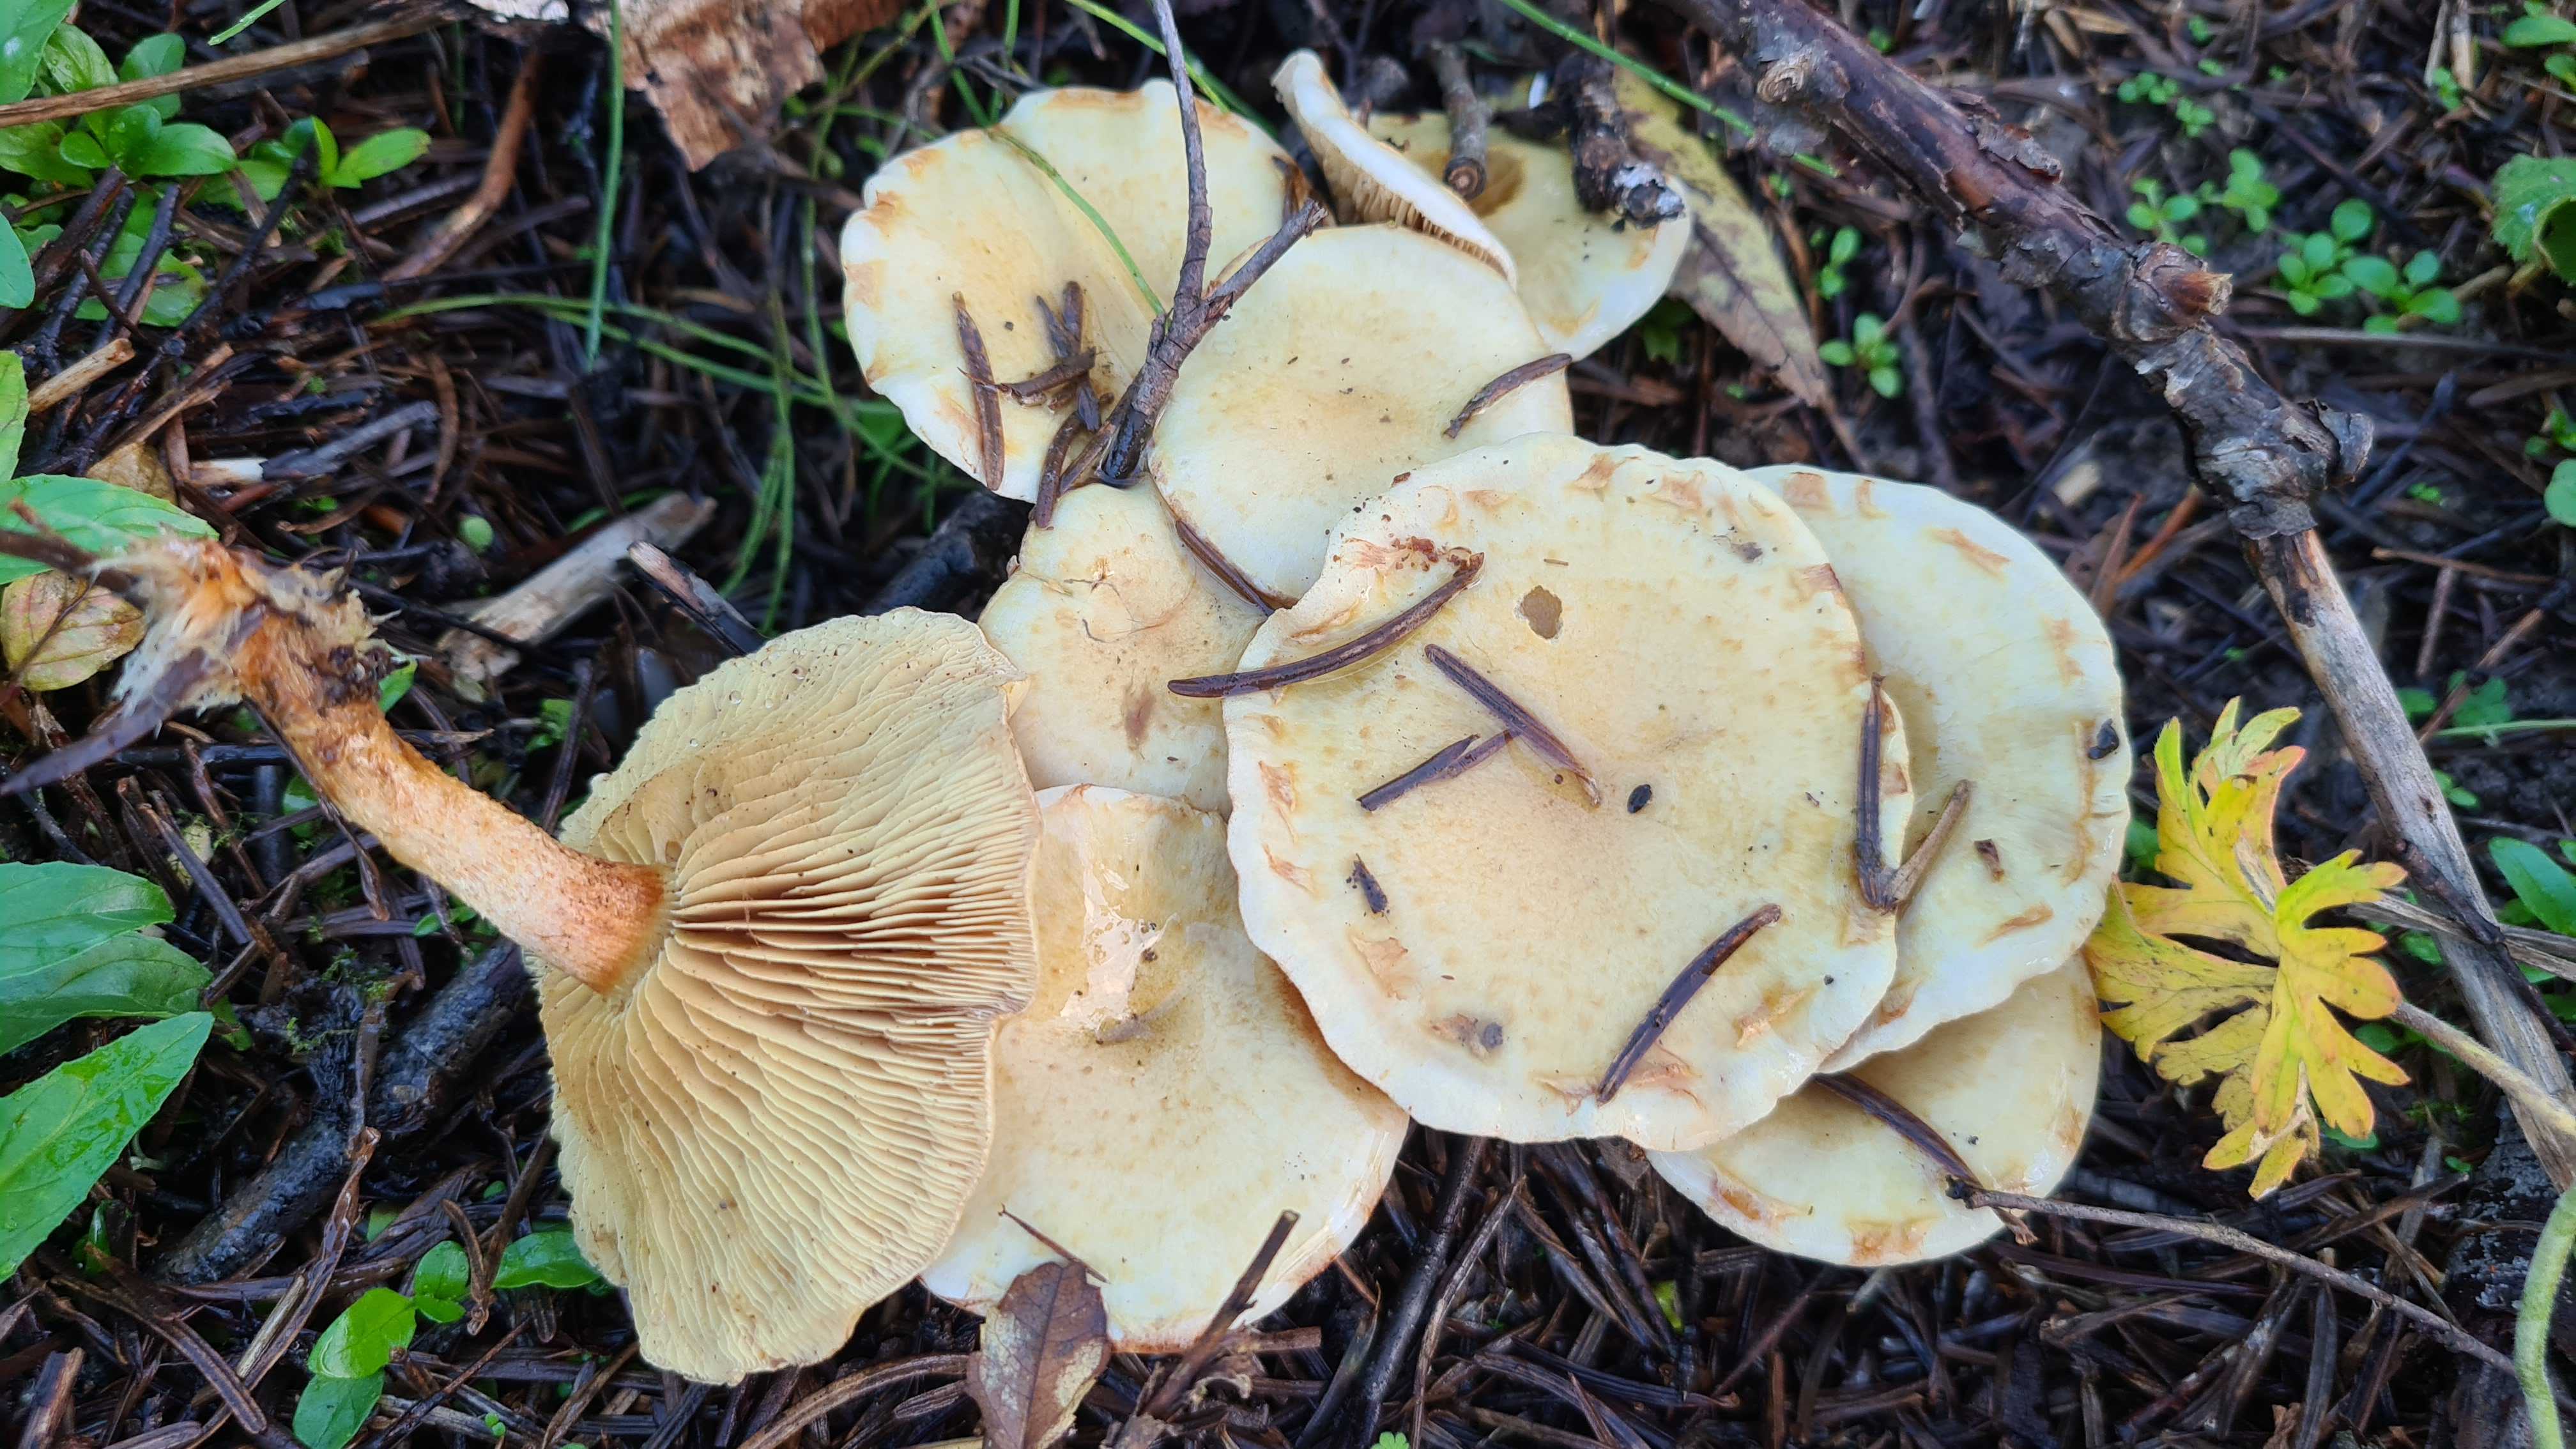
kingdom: Fungi
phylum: Basidiomycota
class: Agaricomycetes
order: Agaricales
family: Strophariaceae
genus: Pholiota
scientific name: Pholiota gummosa
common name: grøngul skælhat
